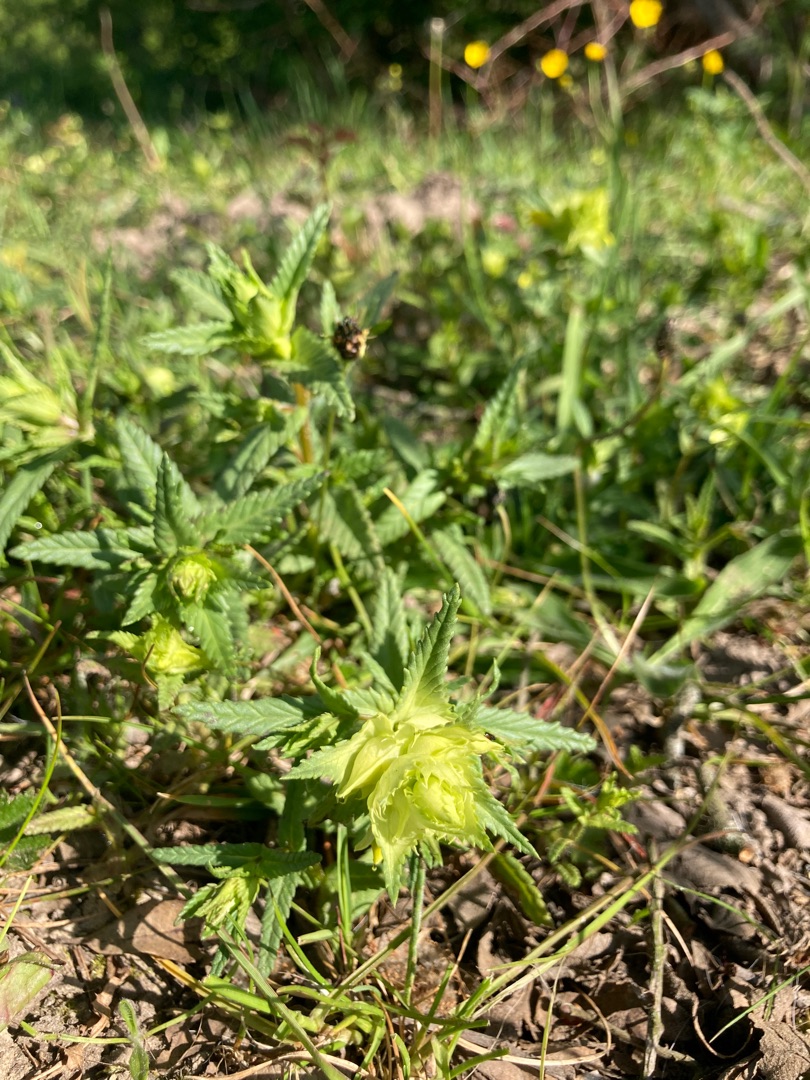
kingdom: Plantae
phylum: Tracheophyta
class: Magnoliopsida
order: Lamiales
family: Orobanchaceae
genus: Rhinanthus
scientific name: Rhinanthus
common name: Stor skjaller
